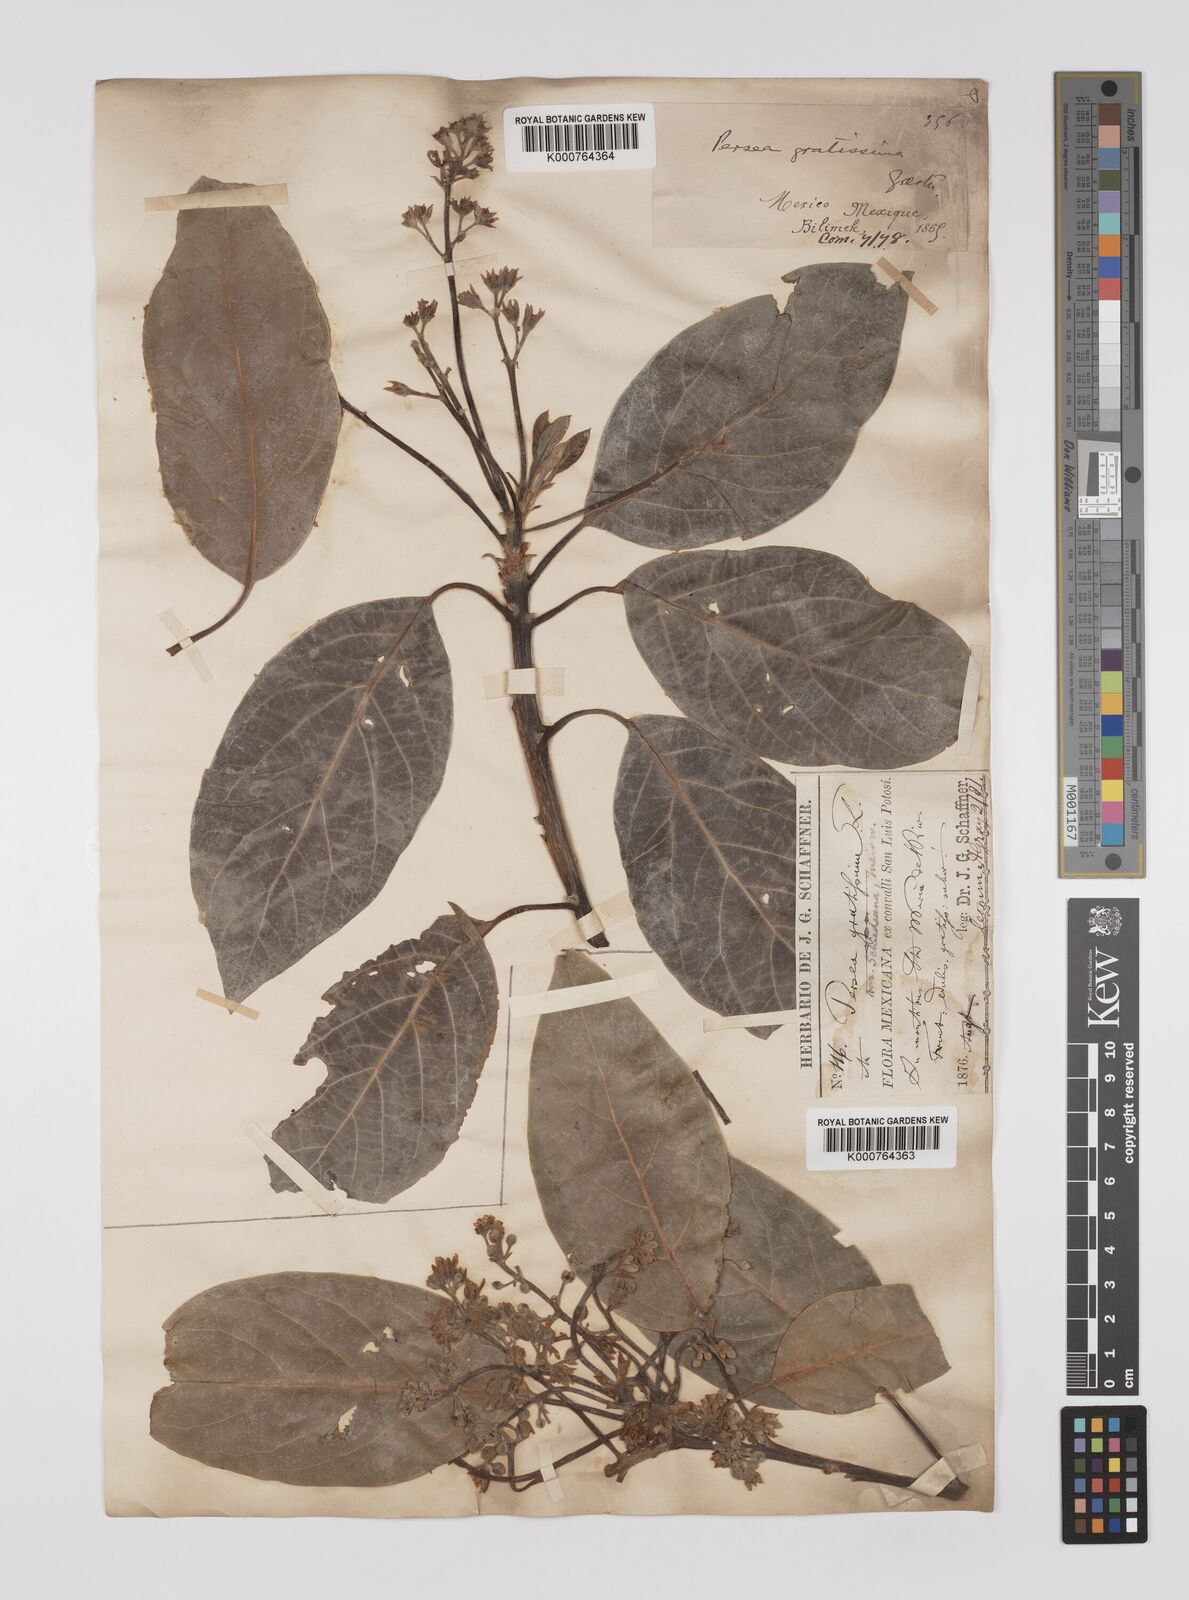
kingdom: Plantae
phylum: Tracheophyta
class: Magnoliopsida
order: Laurales
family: Lauraceae
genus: Persea
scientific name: Persea americana
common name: Avocado
